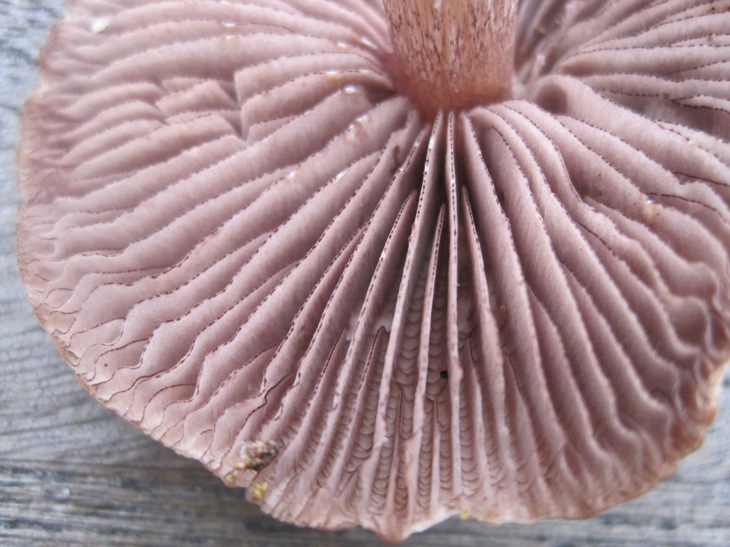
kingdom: Fungi
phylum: Basidiomycota
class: Agaricomycetes
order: Agaricales
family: Mycenaceae
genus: Mycena
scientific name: Mycena pelianthina
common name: mørkbladet huesvamp
